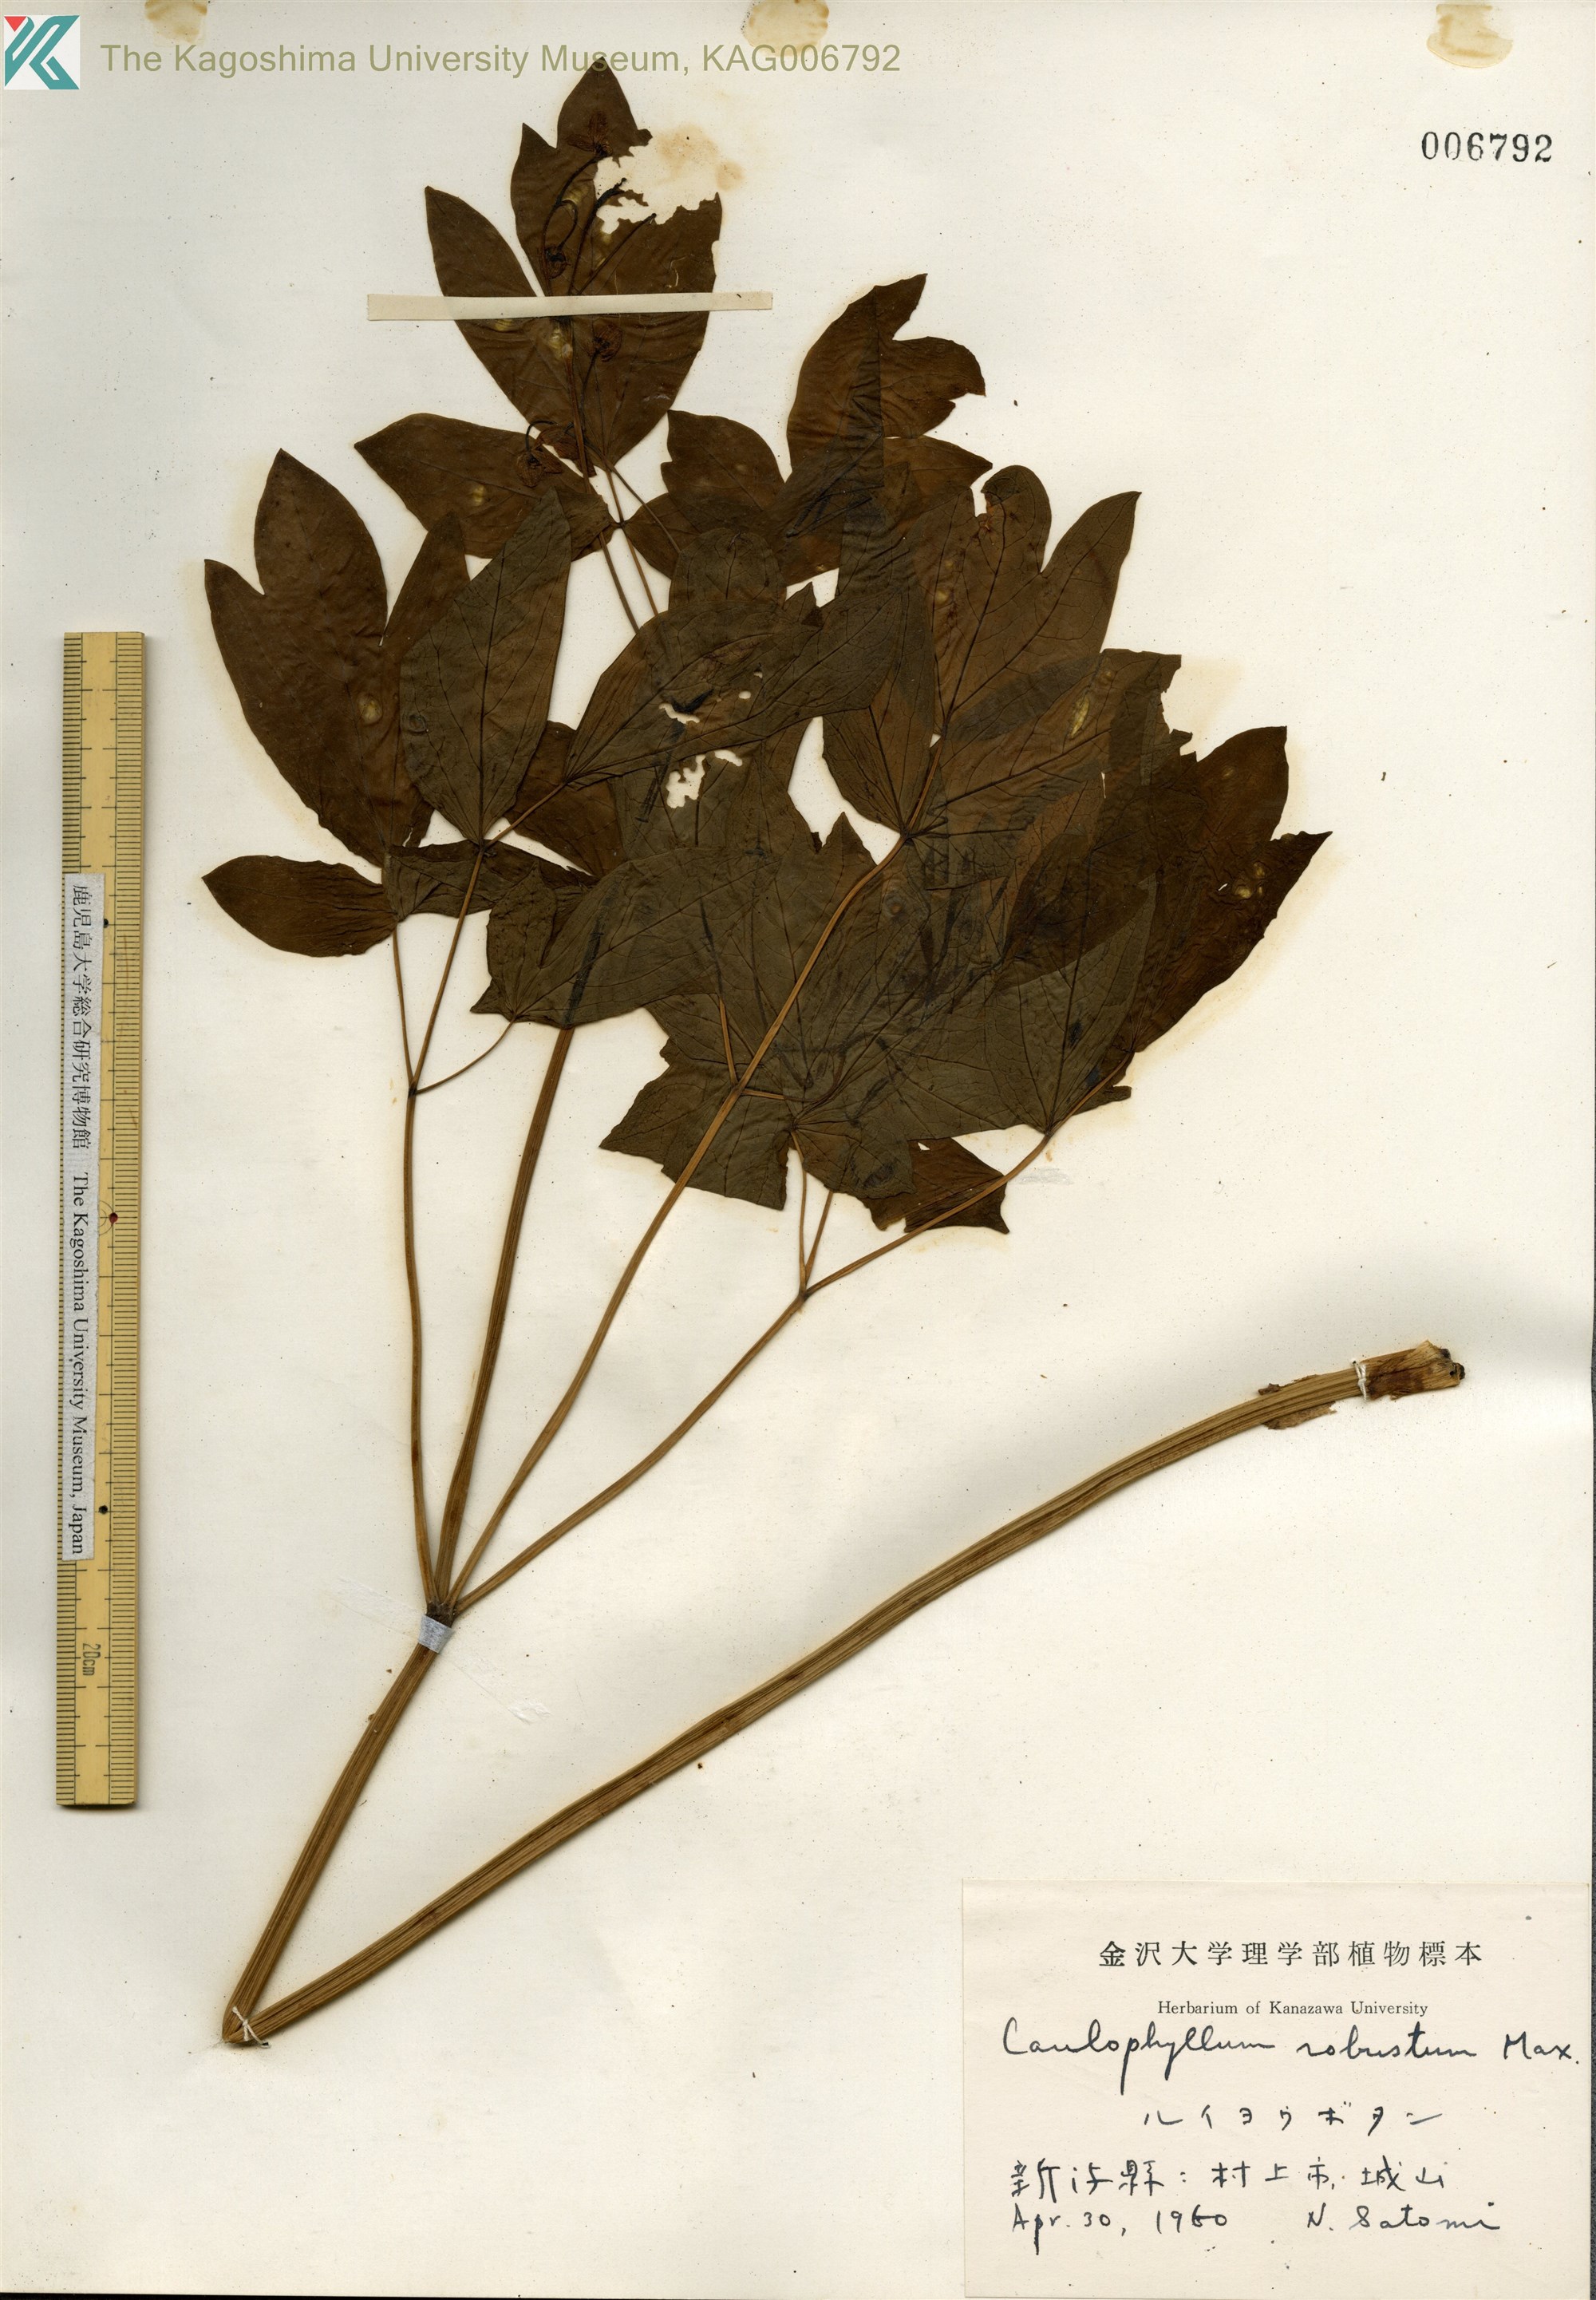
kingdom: Plantae
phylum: Tracheophyta
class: Magnoliopsida
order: Ranunculales
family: Berberidaceae
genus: Caulophyllum
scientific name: Caulophyllum robustum
